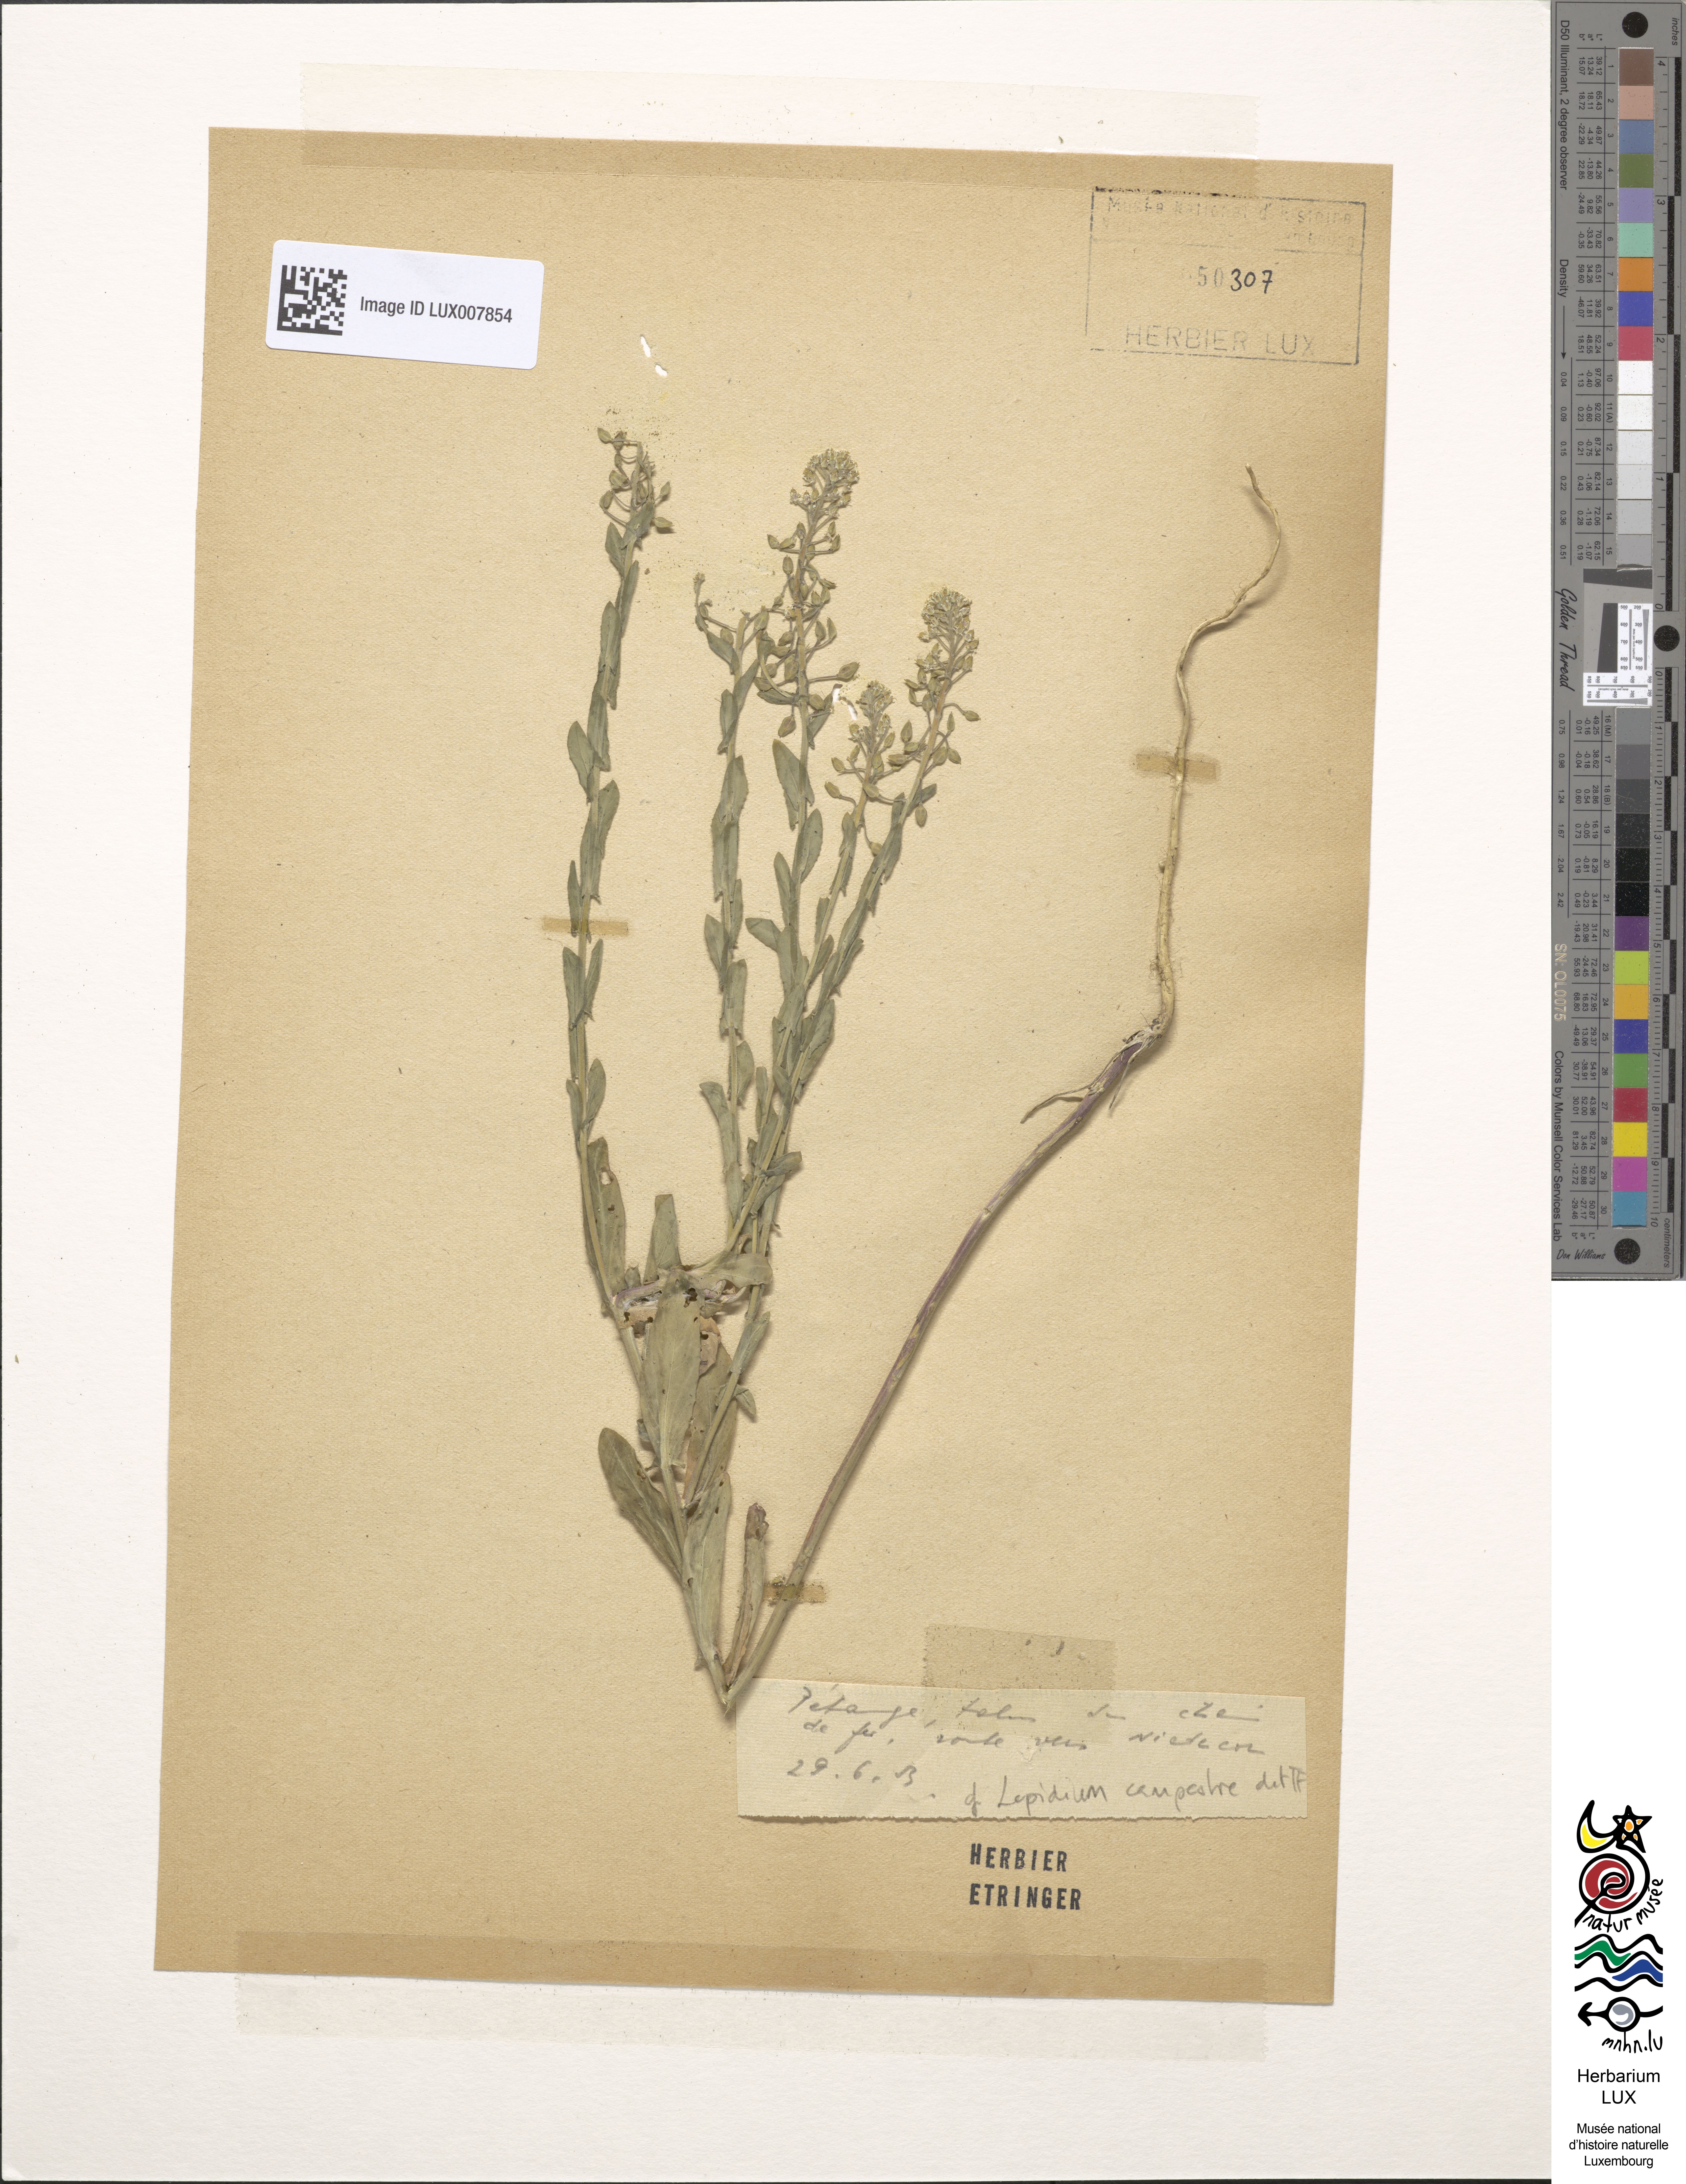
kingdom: Plantae
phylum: Tracheophyta
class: Magnoliopsida
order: Brassicales
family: Brassicaceae
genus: Lepidium
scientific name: Lepidium campestre
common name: Field pepperwort
